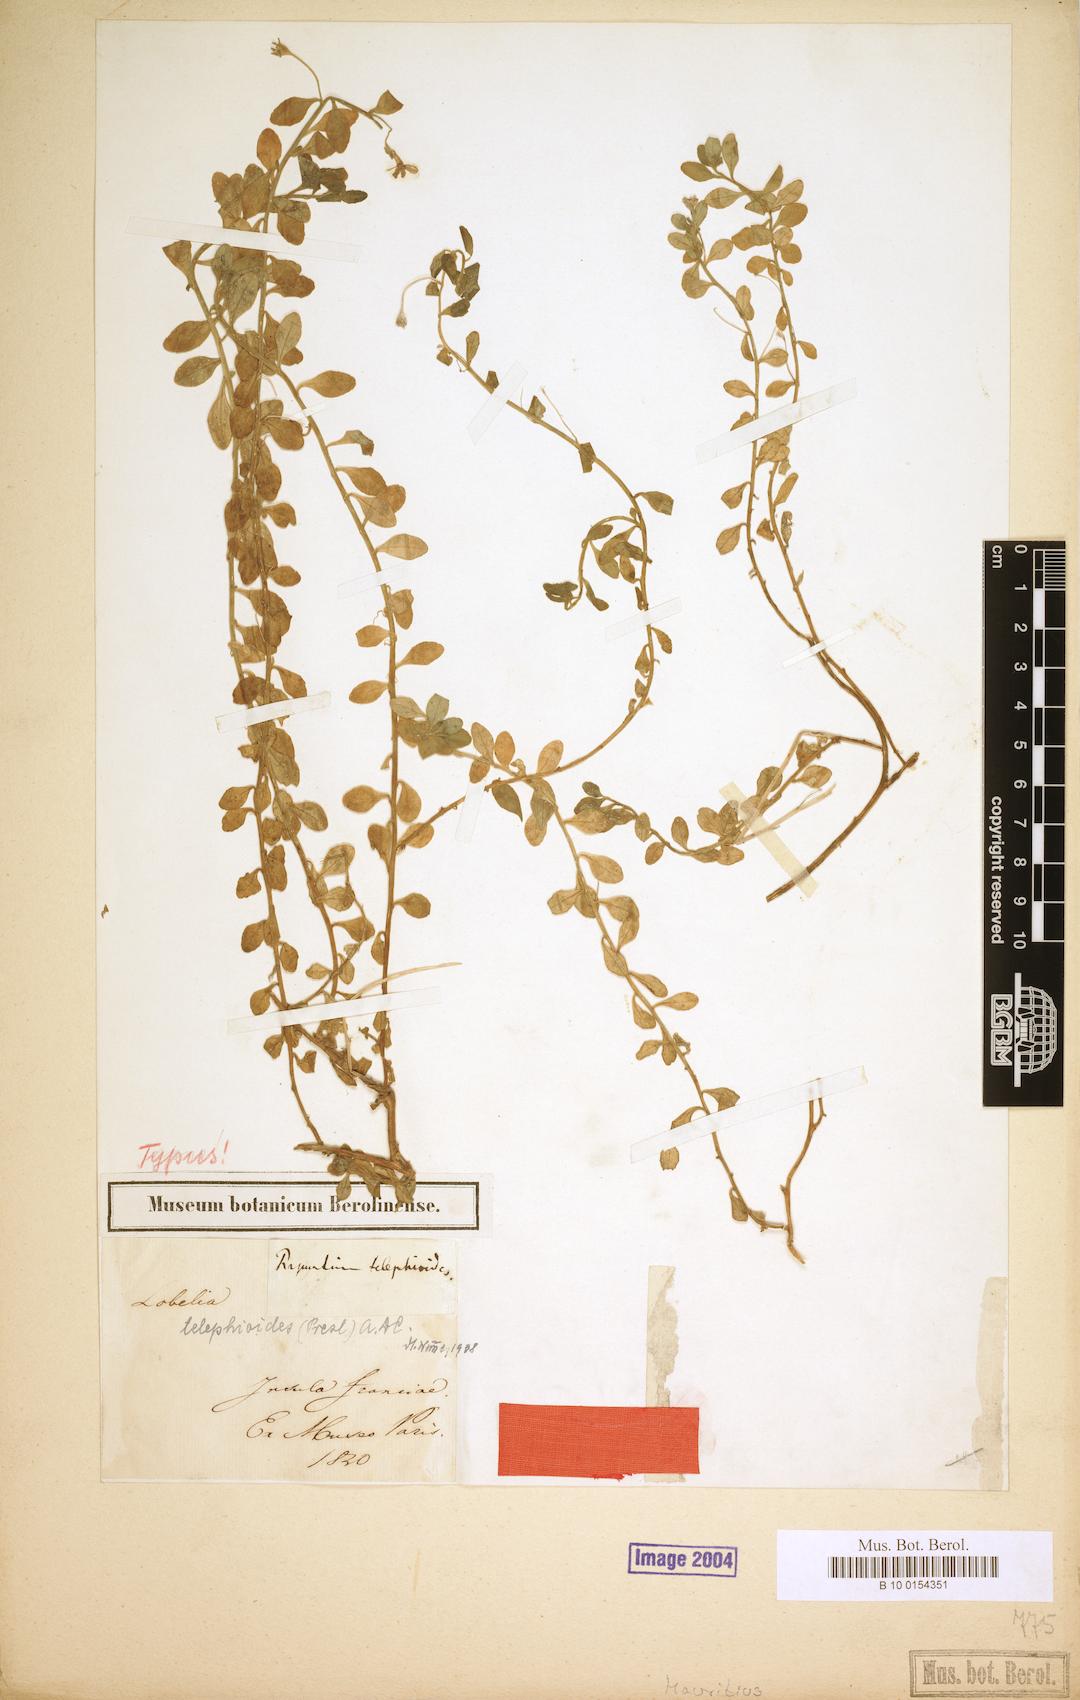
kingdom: Plantae
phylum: Tracheophyta
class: Magnoliopsida
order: Asterales
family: Campanulaceae
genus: Lobelia
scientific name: Lobelia telephioides
